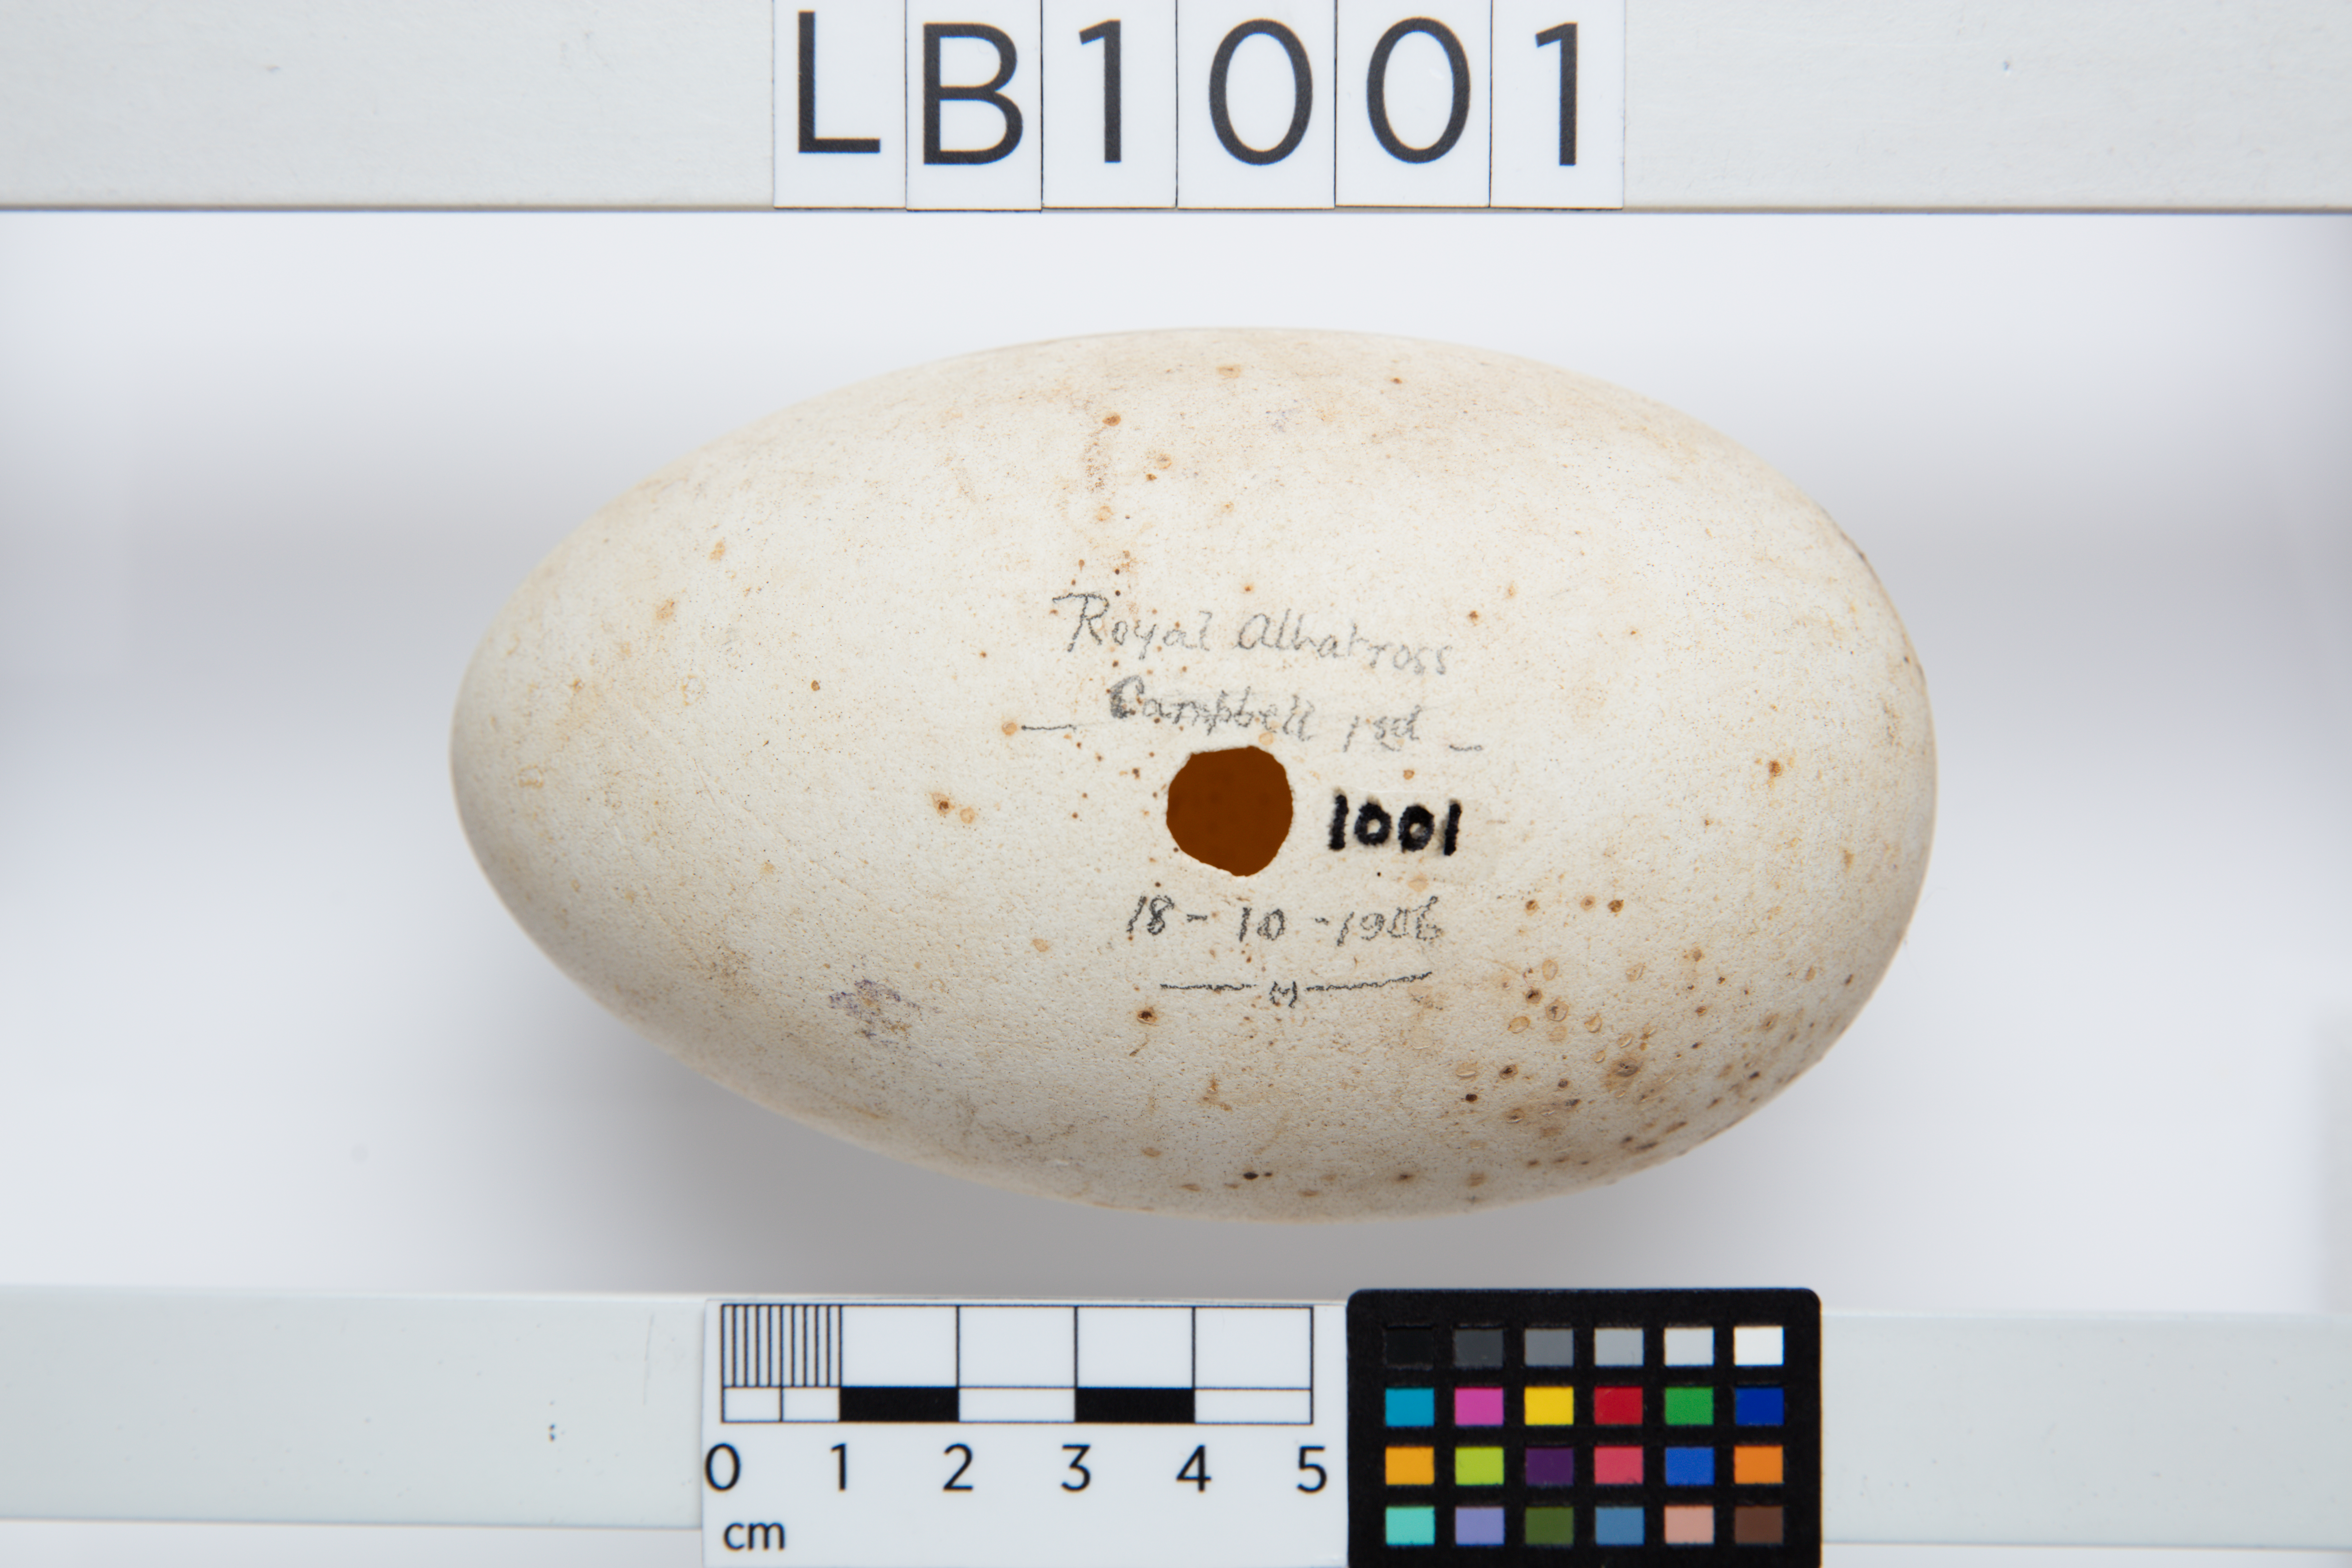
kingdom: Animalia
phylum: Chordata
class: Aves
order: Procellariiformes
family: Diomedeidae
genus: Diomedea
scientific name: Diomedea epomophora
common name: Southern royal albatross
